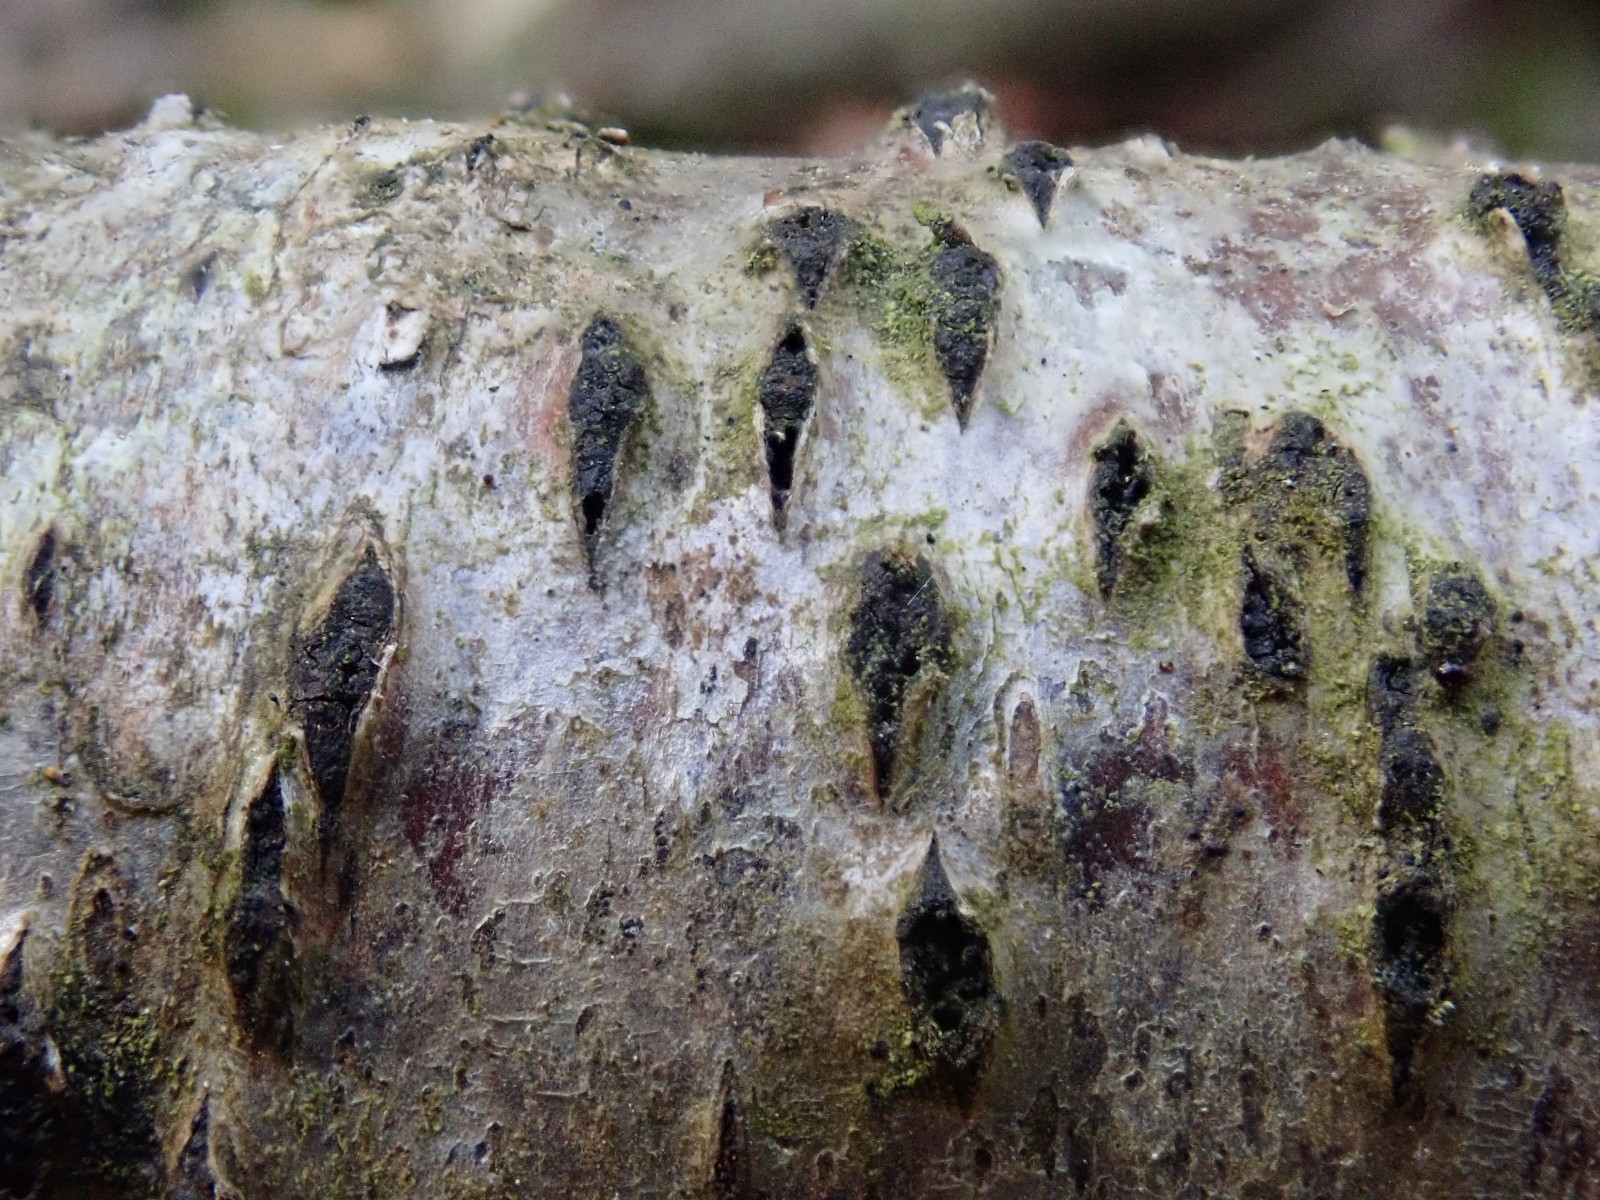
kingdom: Fungi
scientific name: Fungi
